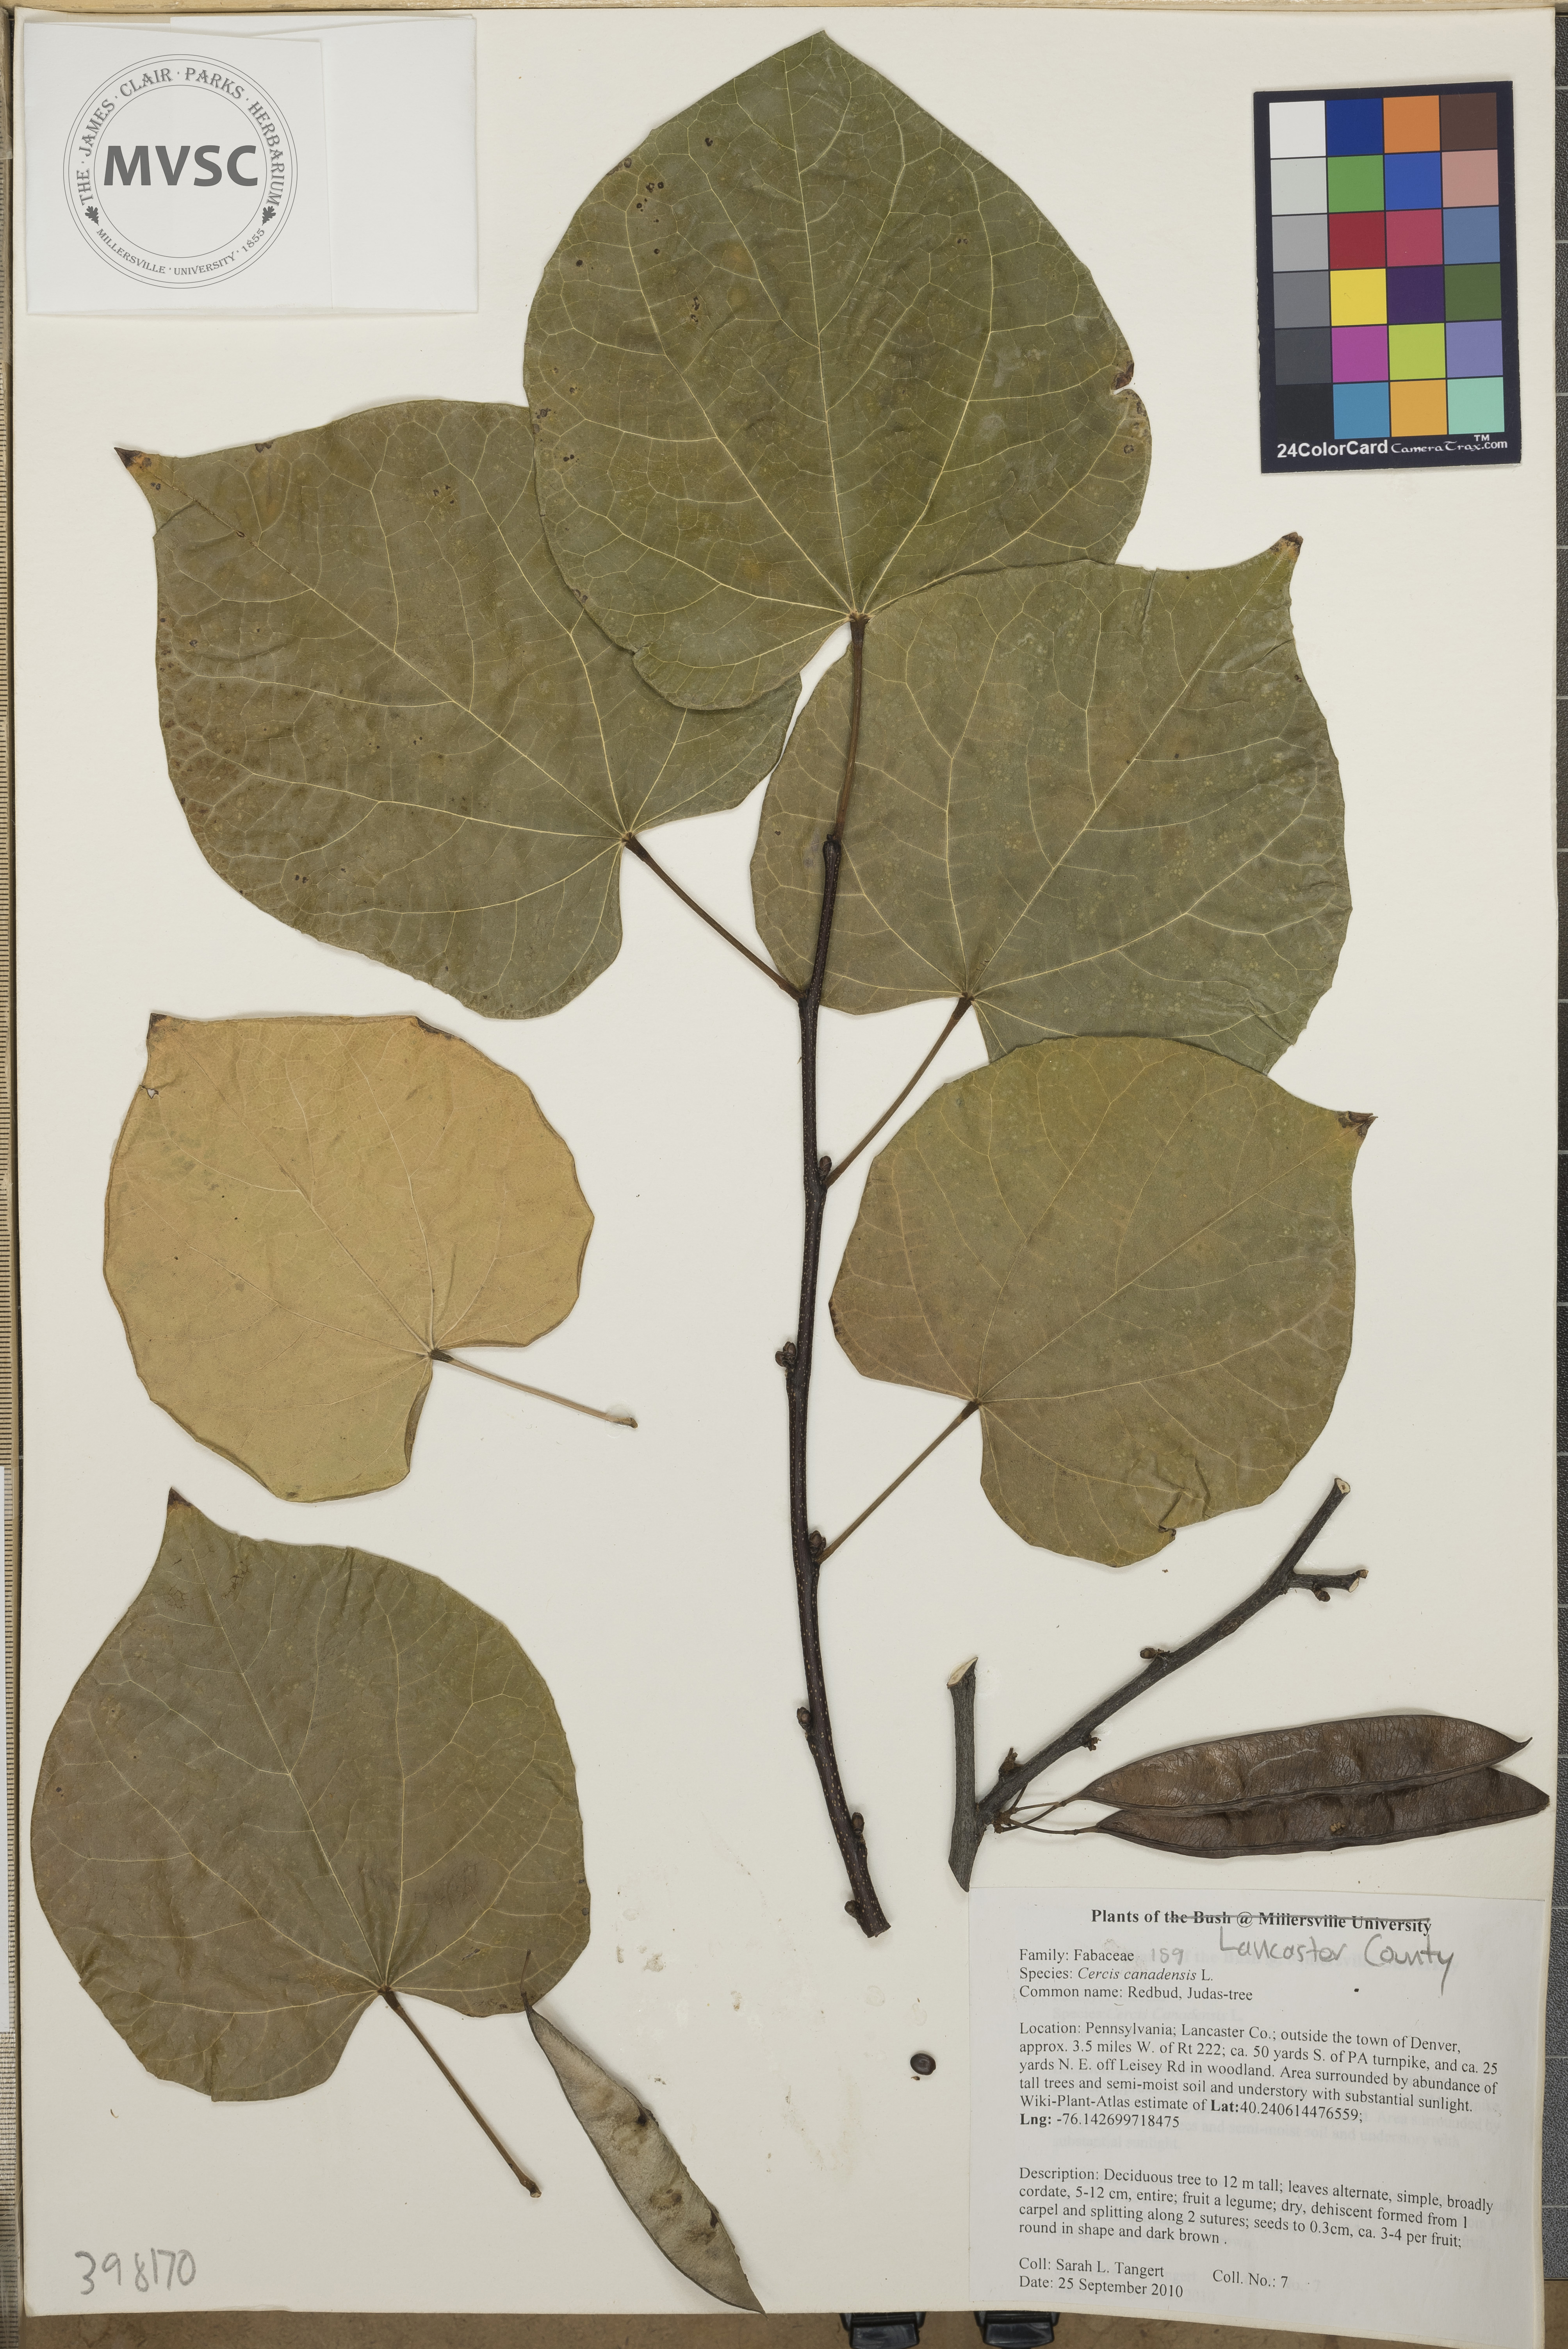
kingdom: Plantae
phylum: Tracheophyta
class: Magnoliopsida
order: Fabales
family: Fabaceae
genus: Cercis
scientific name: Cercis canadensis
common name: Redbud
